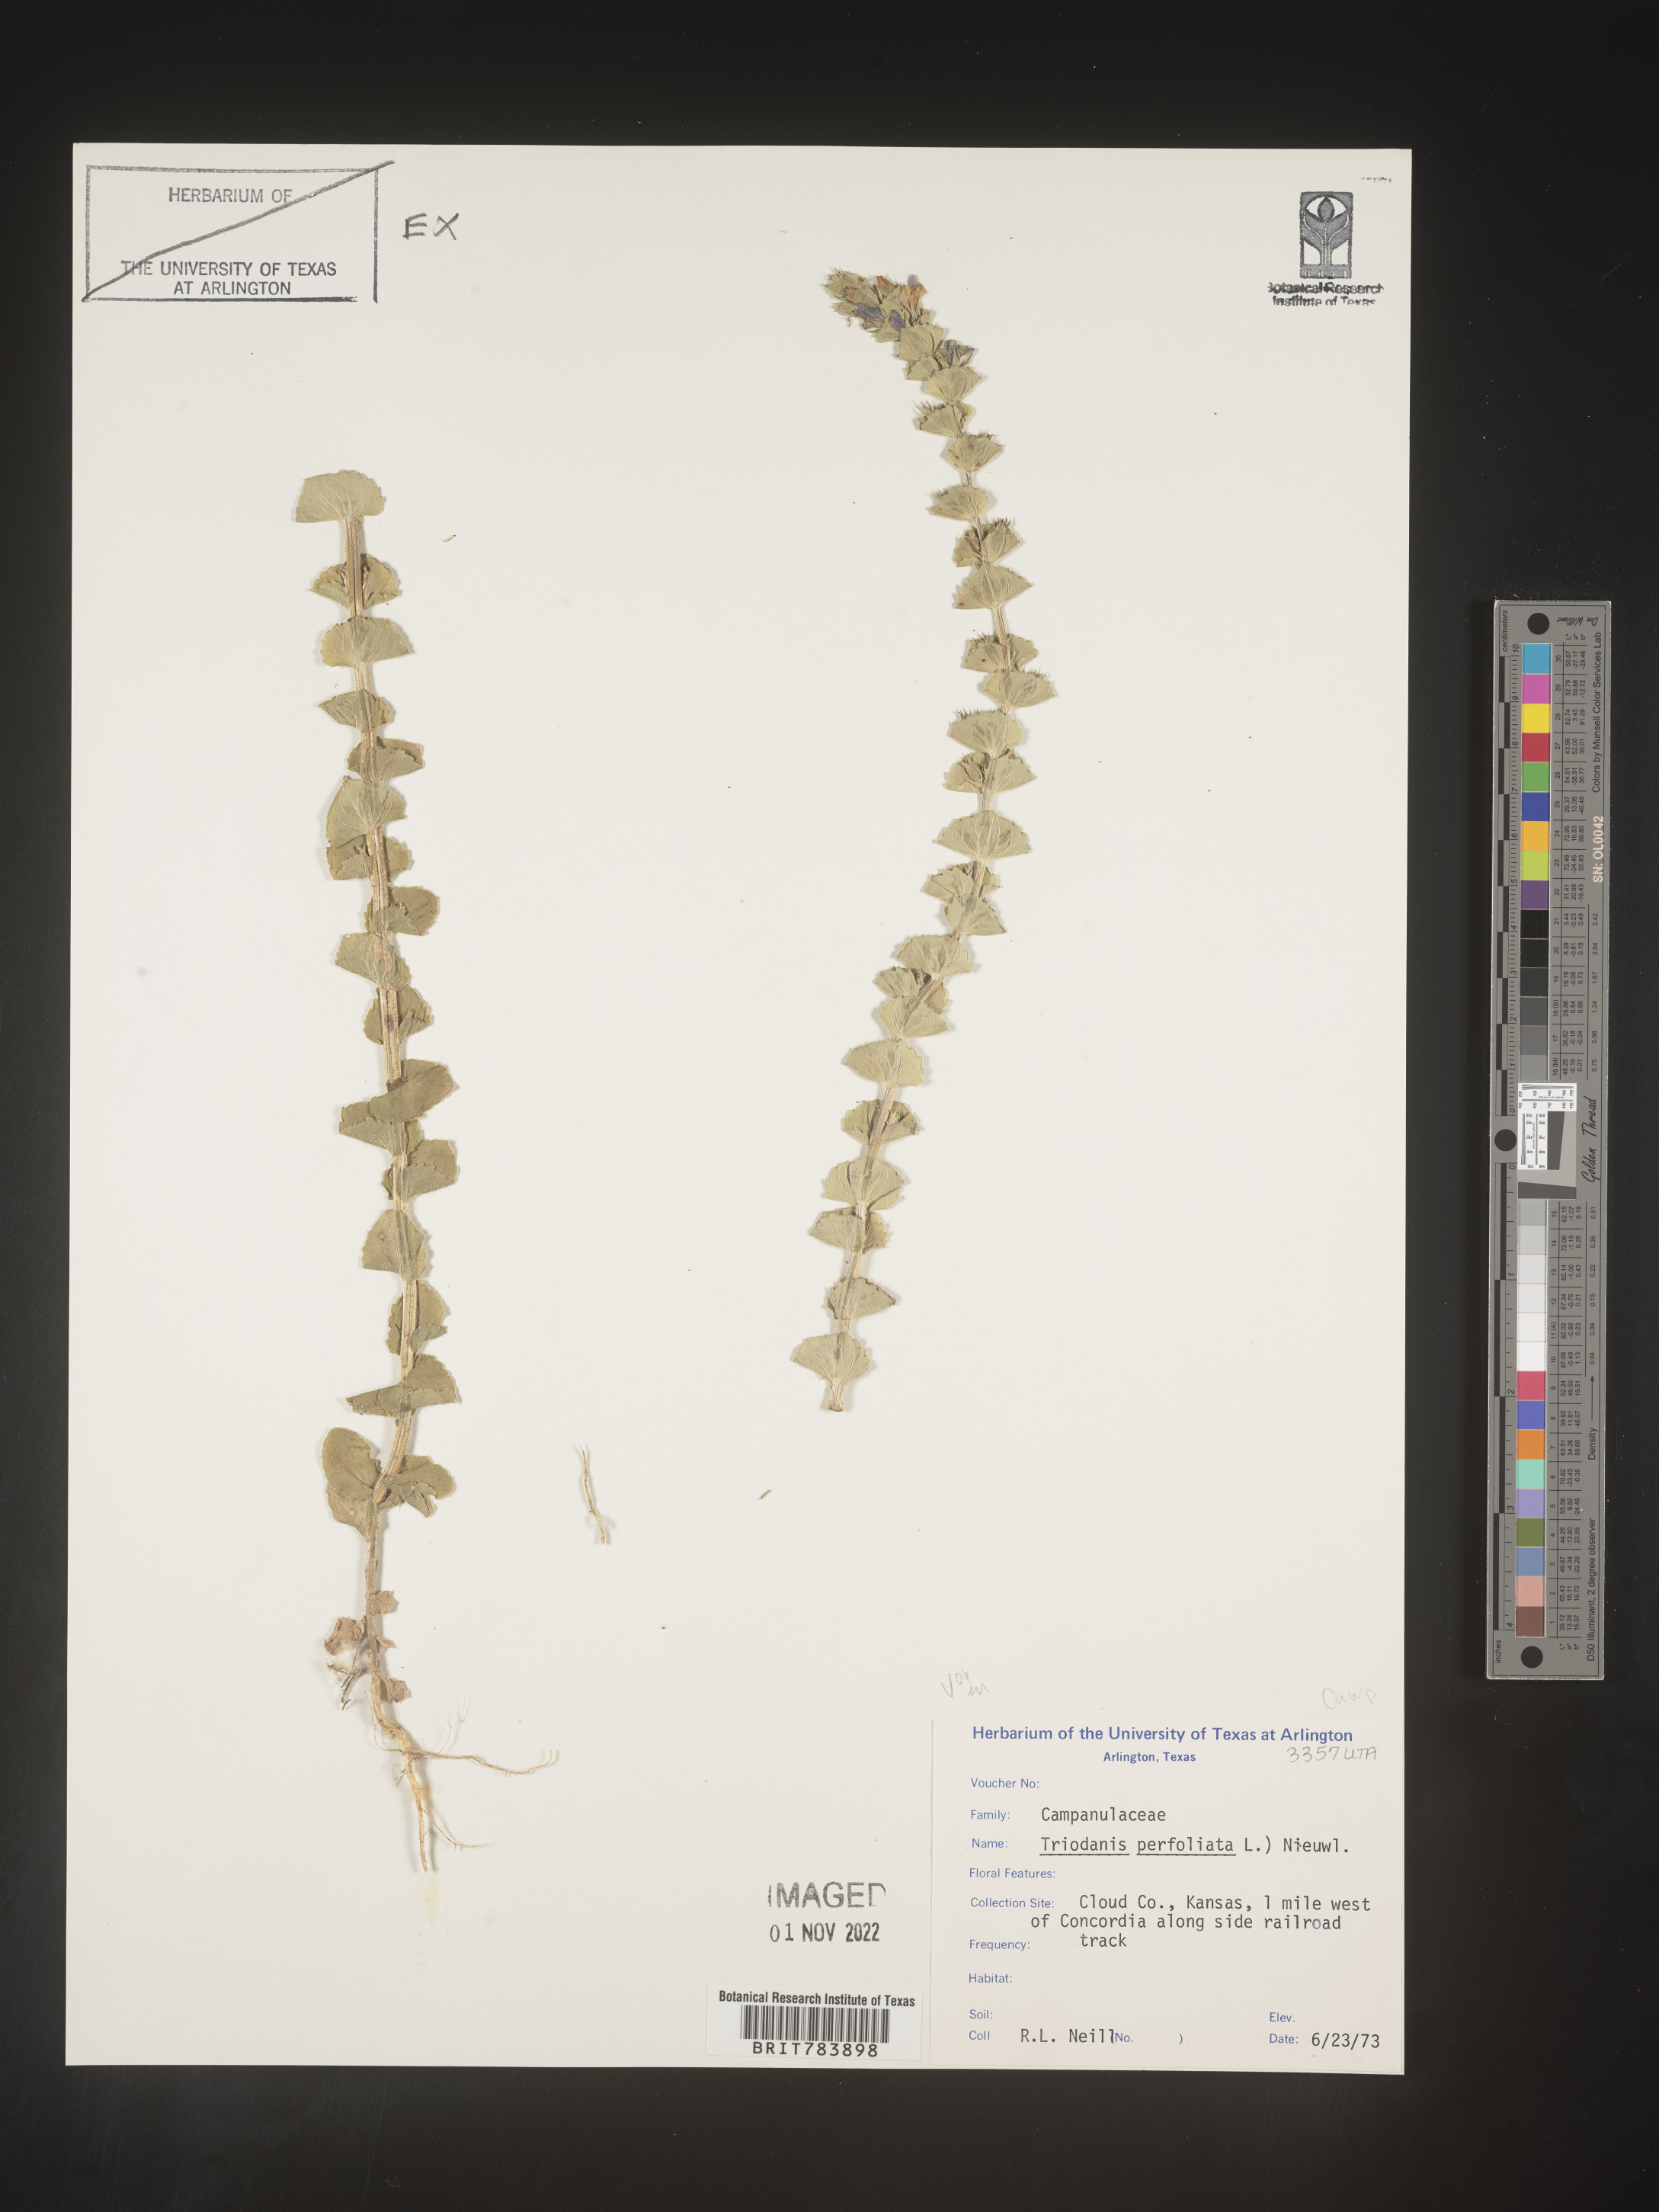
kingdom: Plantae
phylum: Tracheophyta
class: Magnoliopsida
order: Asterales
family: Campanulaceae
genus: Triodanis
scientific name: Triodanis perfoliata
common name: Clasping venus' looking-glass
